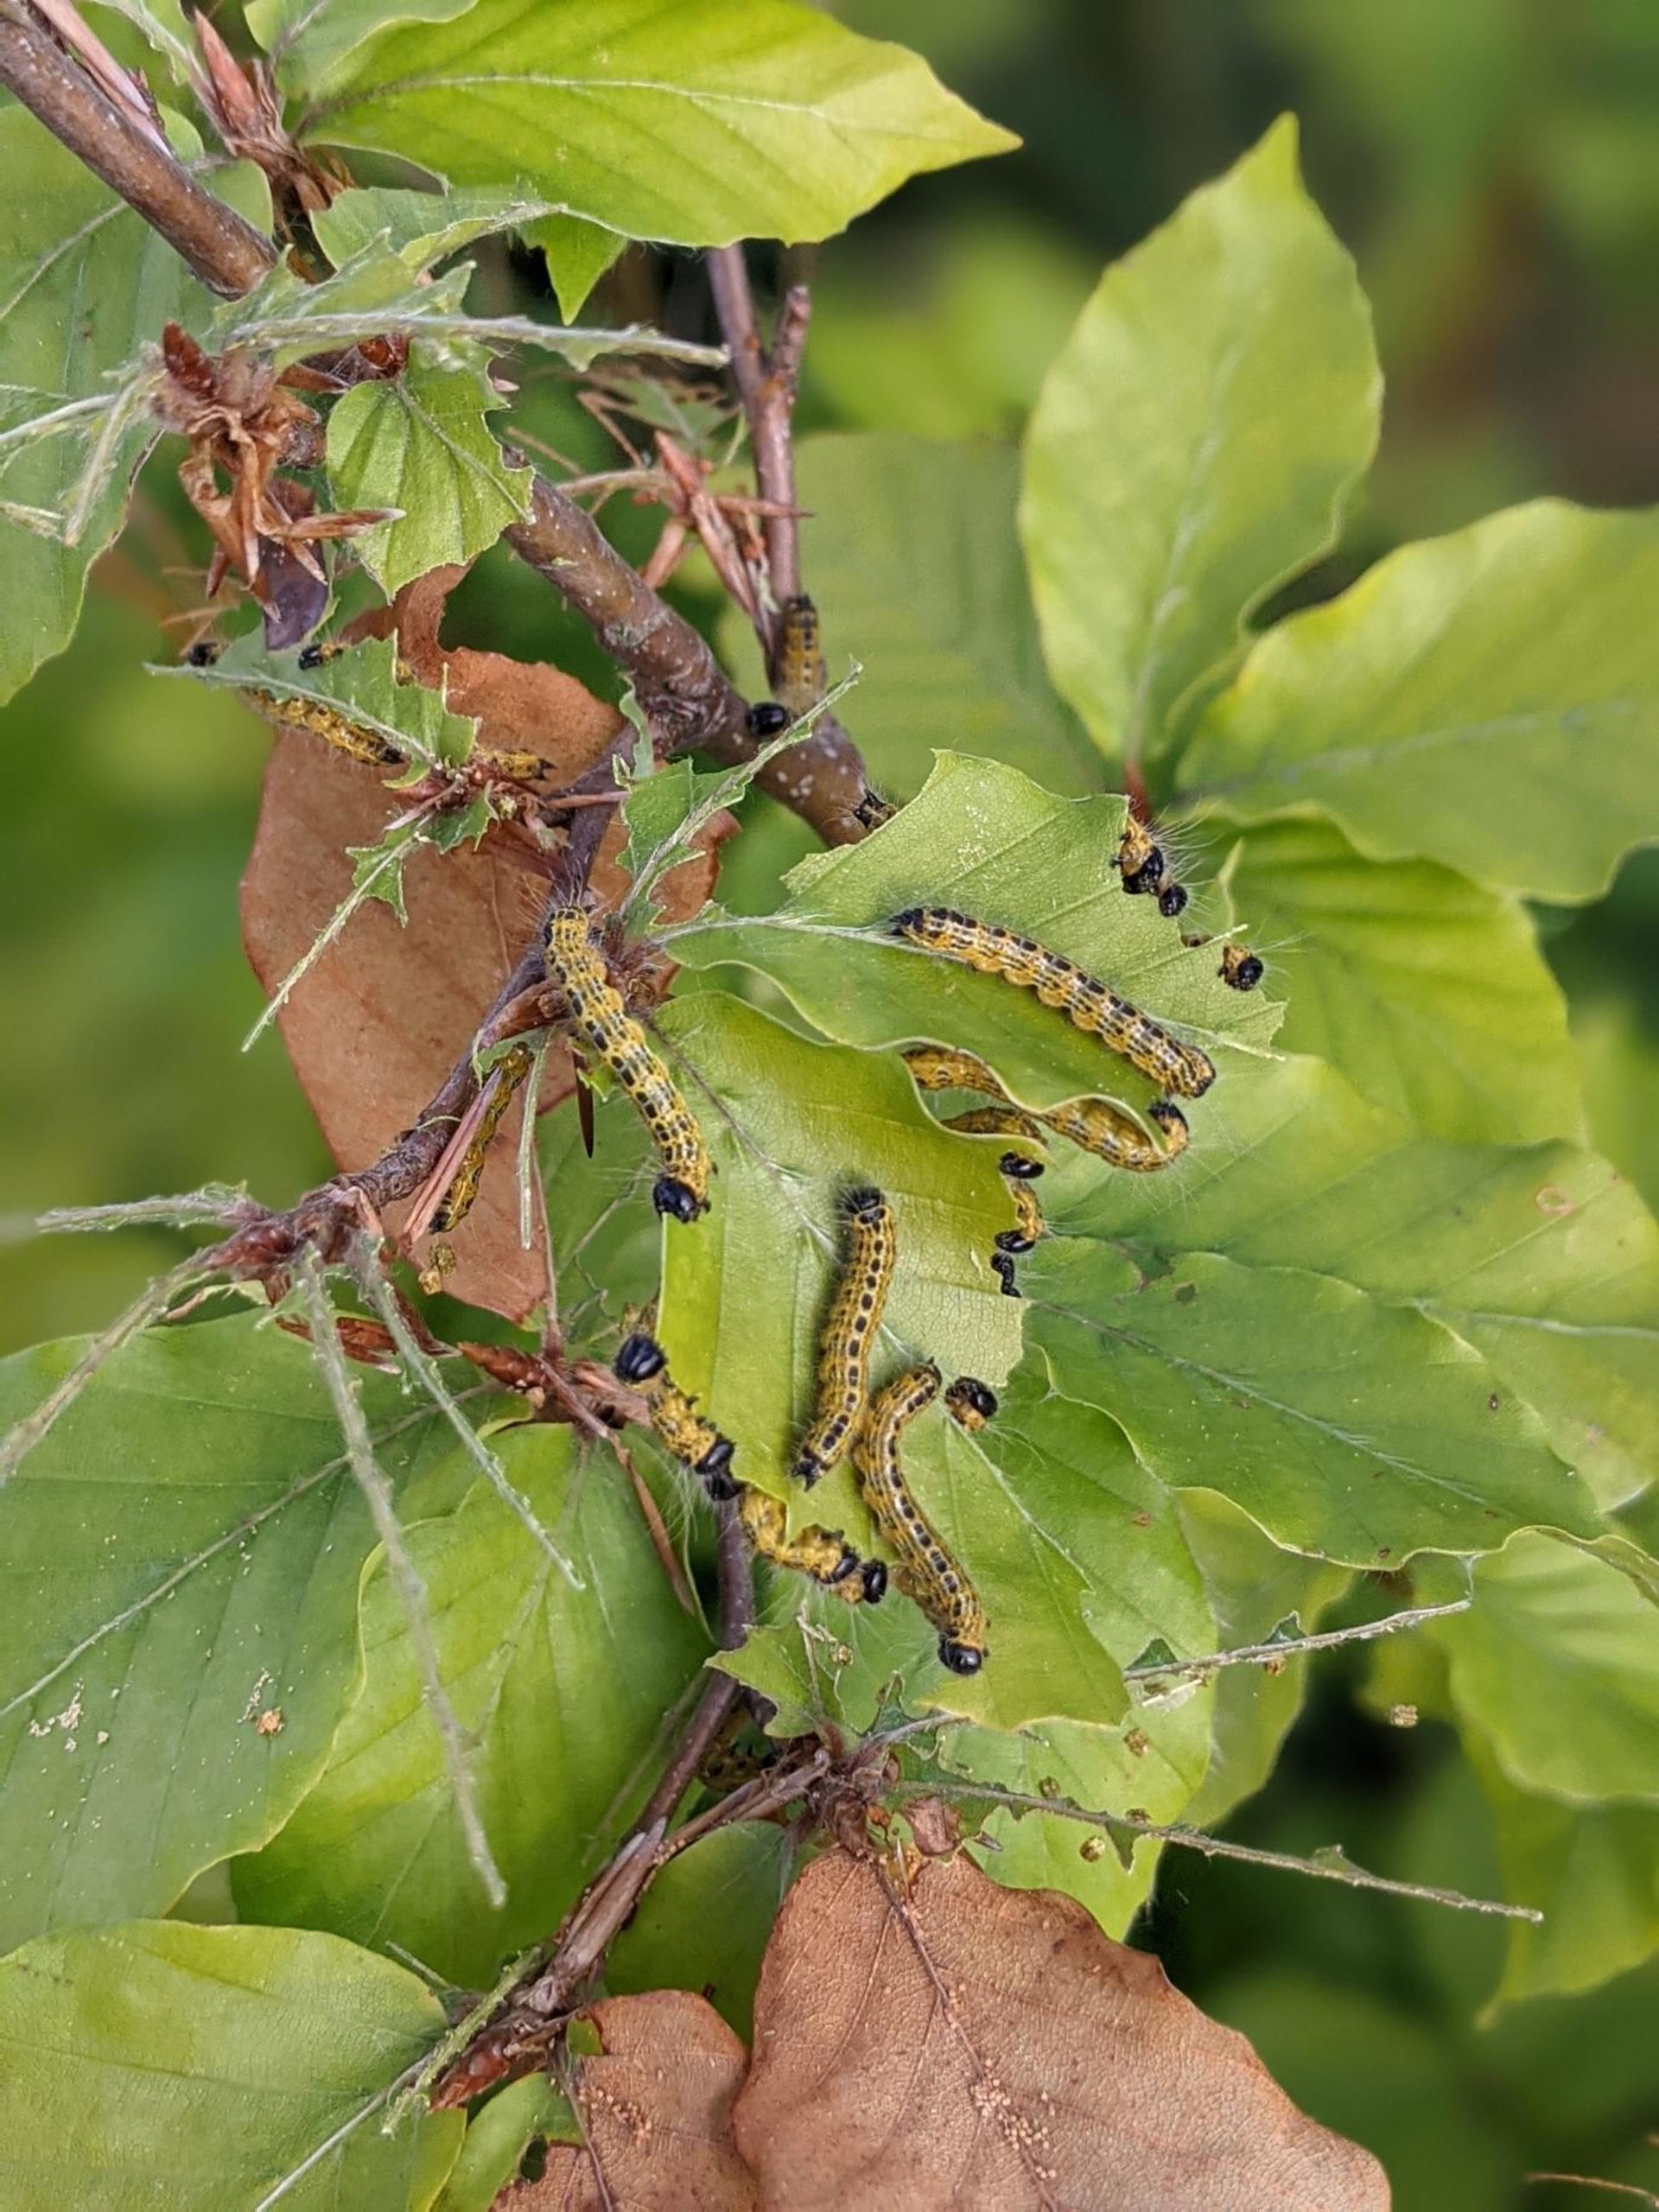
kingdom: Animalia
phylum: Arthropoda
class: Insecta
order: Lepidoptera
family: Notodontidae
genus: Phalera
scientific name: Phalera bucephala
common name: Måneplet
